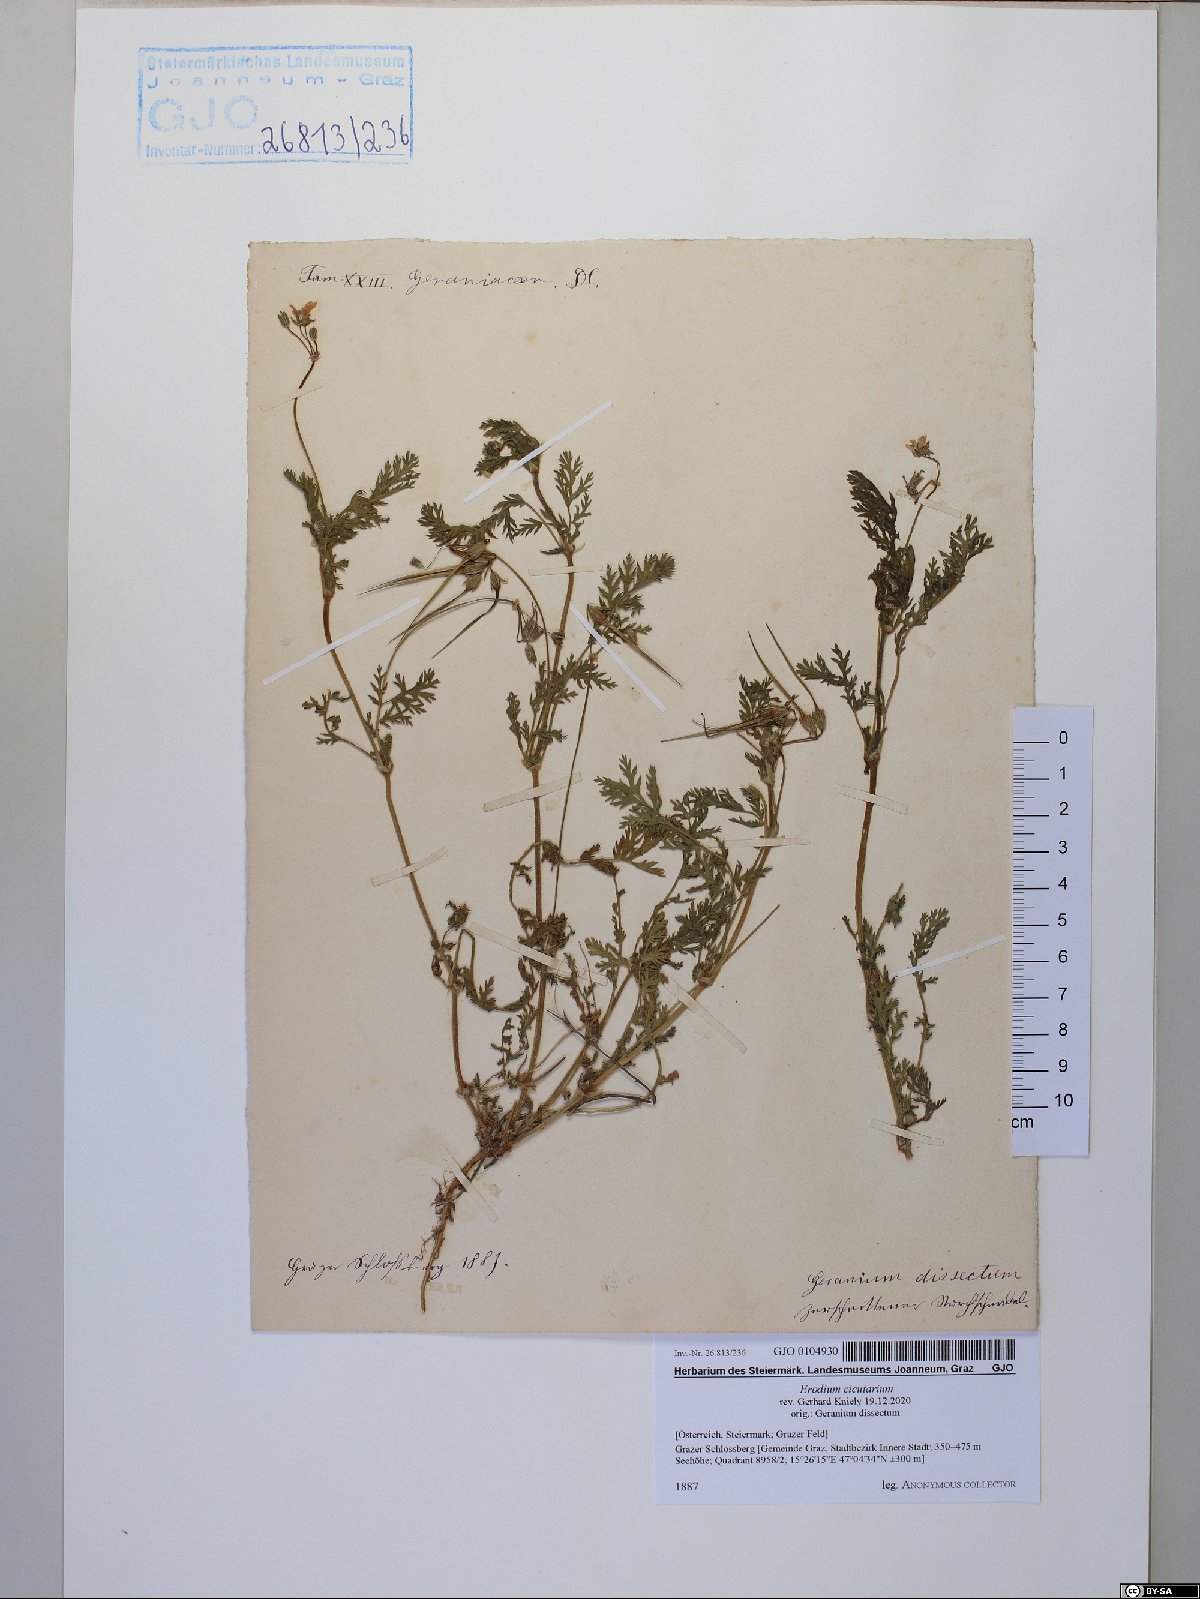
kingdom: Plantae
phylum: Tracheophyta
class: Magnoliopsida
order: Geraniales
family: Geraniaceae
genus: Erodium
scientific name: Erodium cicutarium
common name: Common stork's-bill
